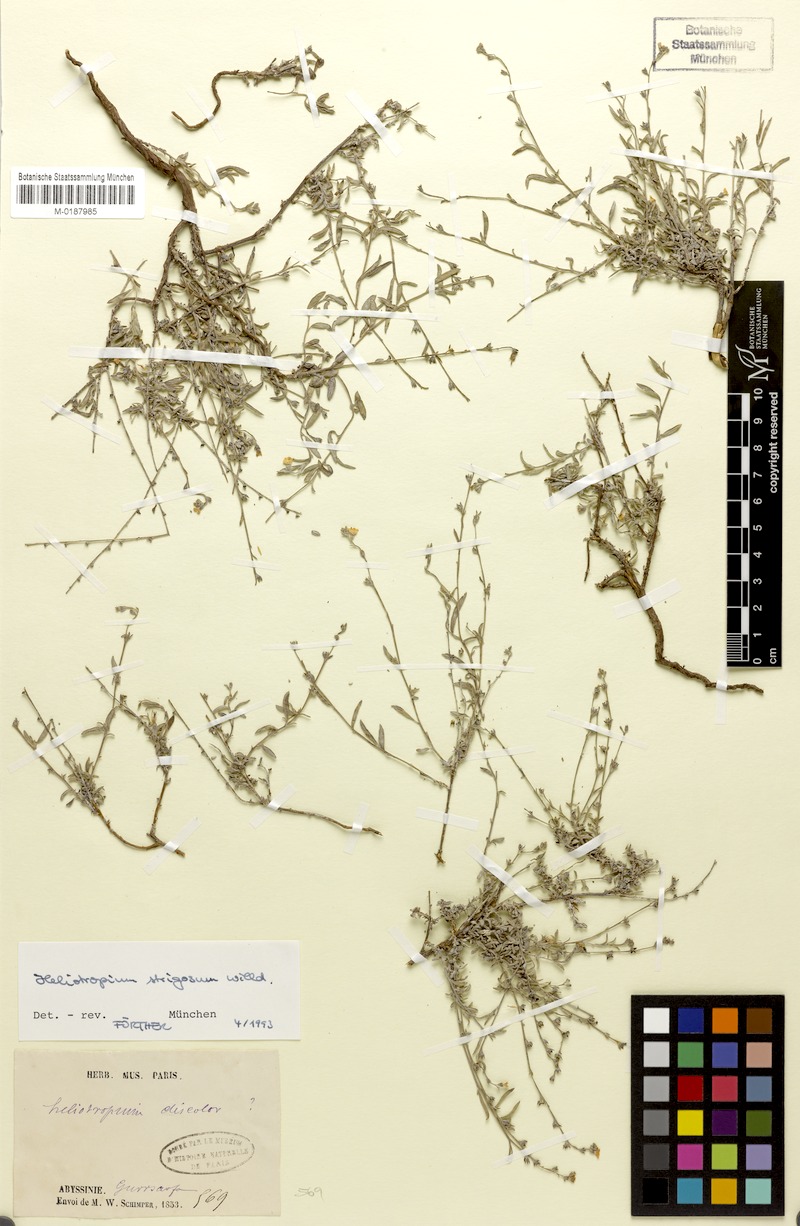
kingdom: Plantae
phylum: Tracheophyta
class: Magnoliopsida
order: Boraginales
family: Heliotropiaceae
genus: Euploca
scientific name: Euploca strigosa
